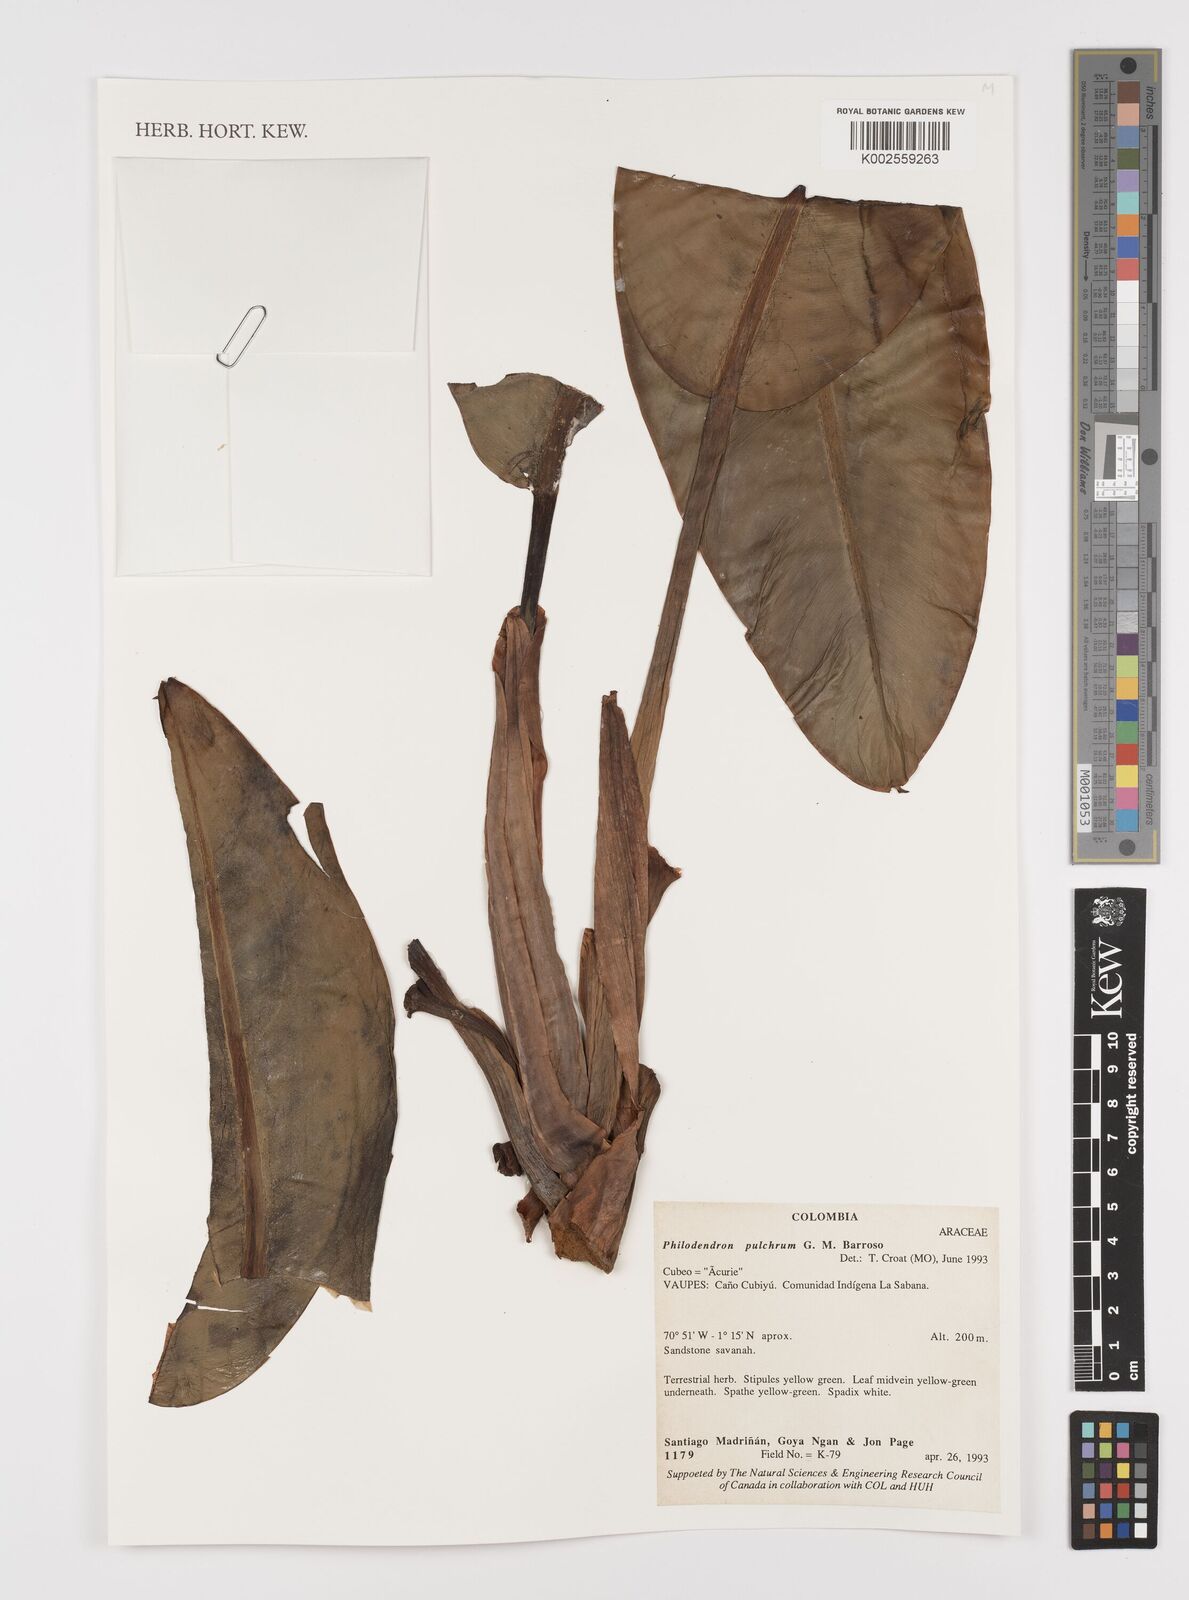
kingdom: Plantae
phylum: Tracheophyta
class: Liliopsida
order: Alismatales
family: Araceae
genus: Philodendron
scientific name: Philodendron pulchrum
